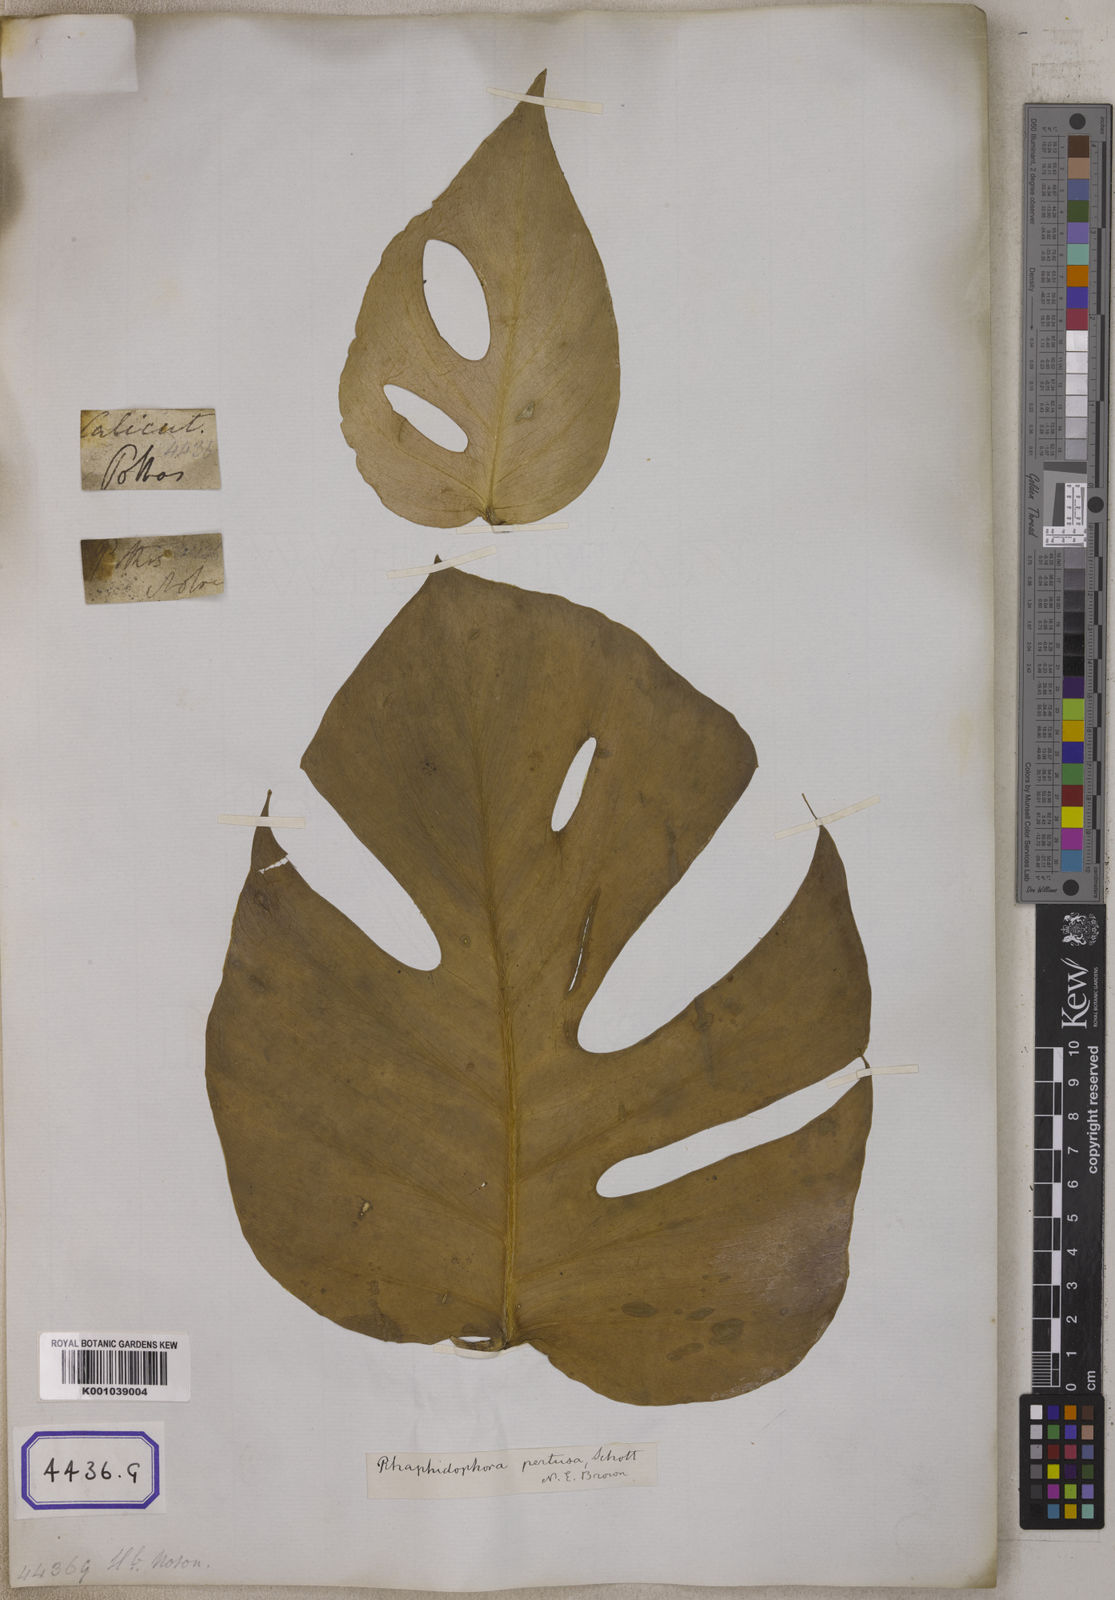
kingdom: Plantae
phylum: Tracheophyta
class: Liliopsida
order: Alismatales
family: Araceae
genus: Scindapsus
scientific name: Scindapsus officinalis
